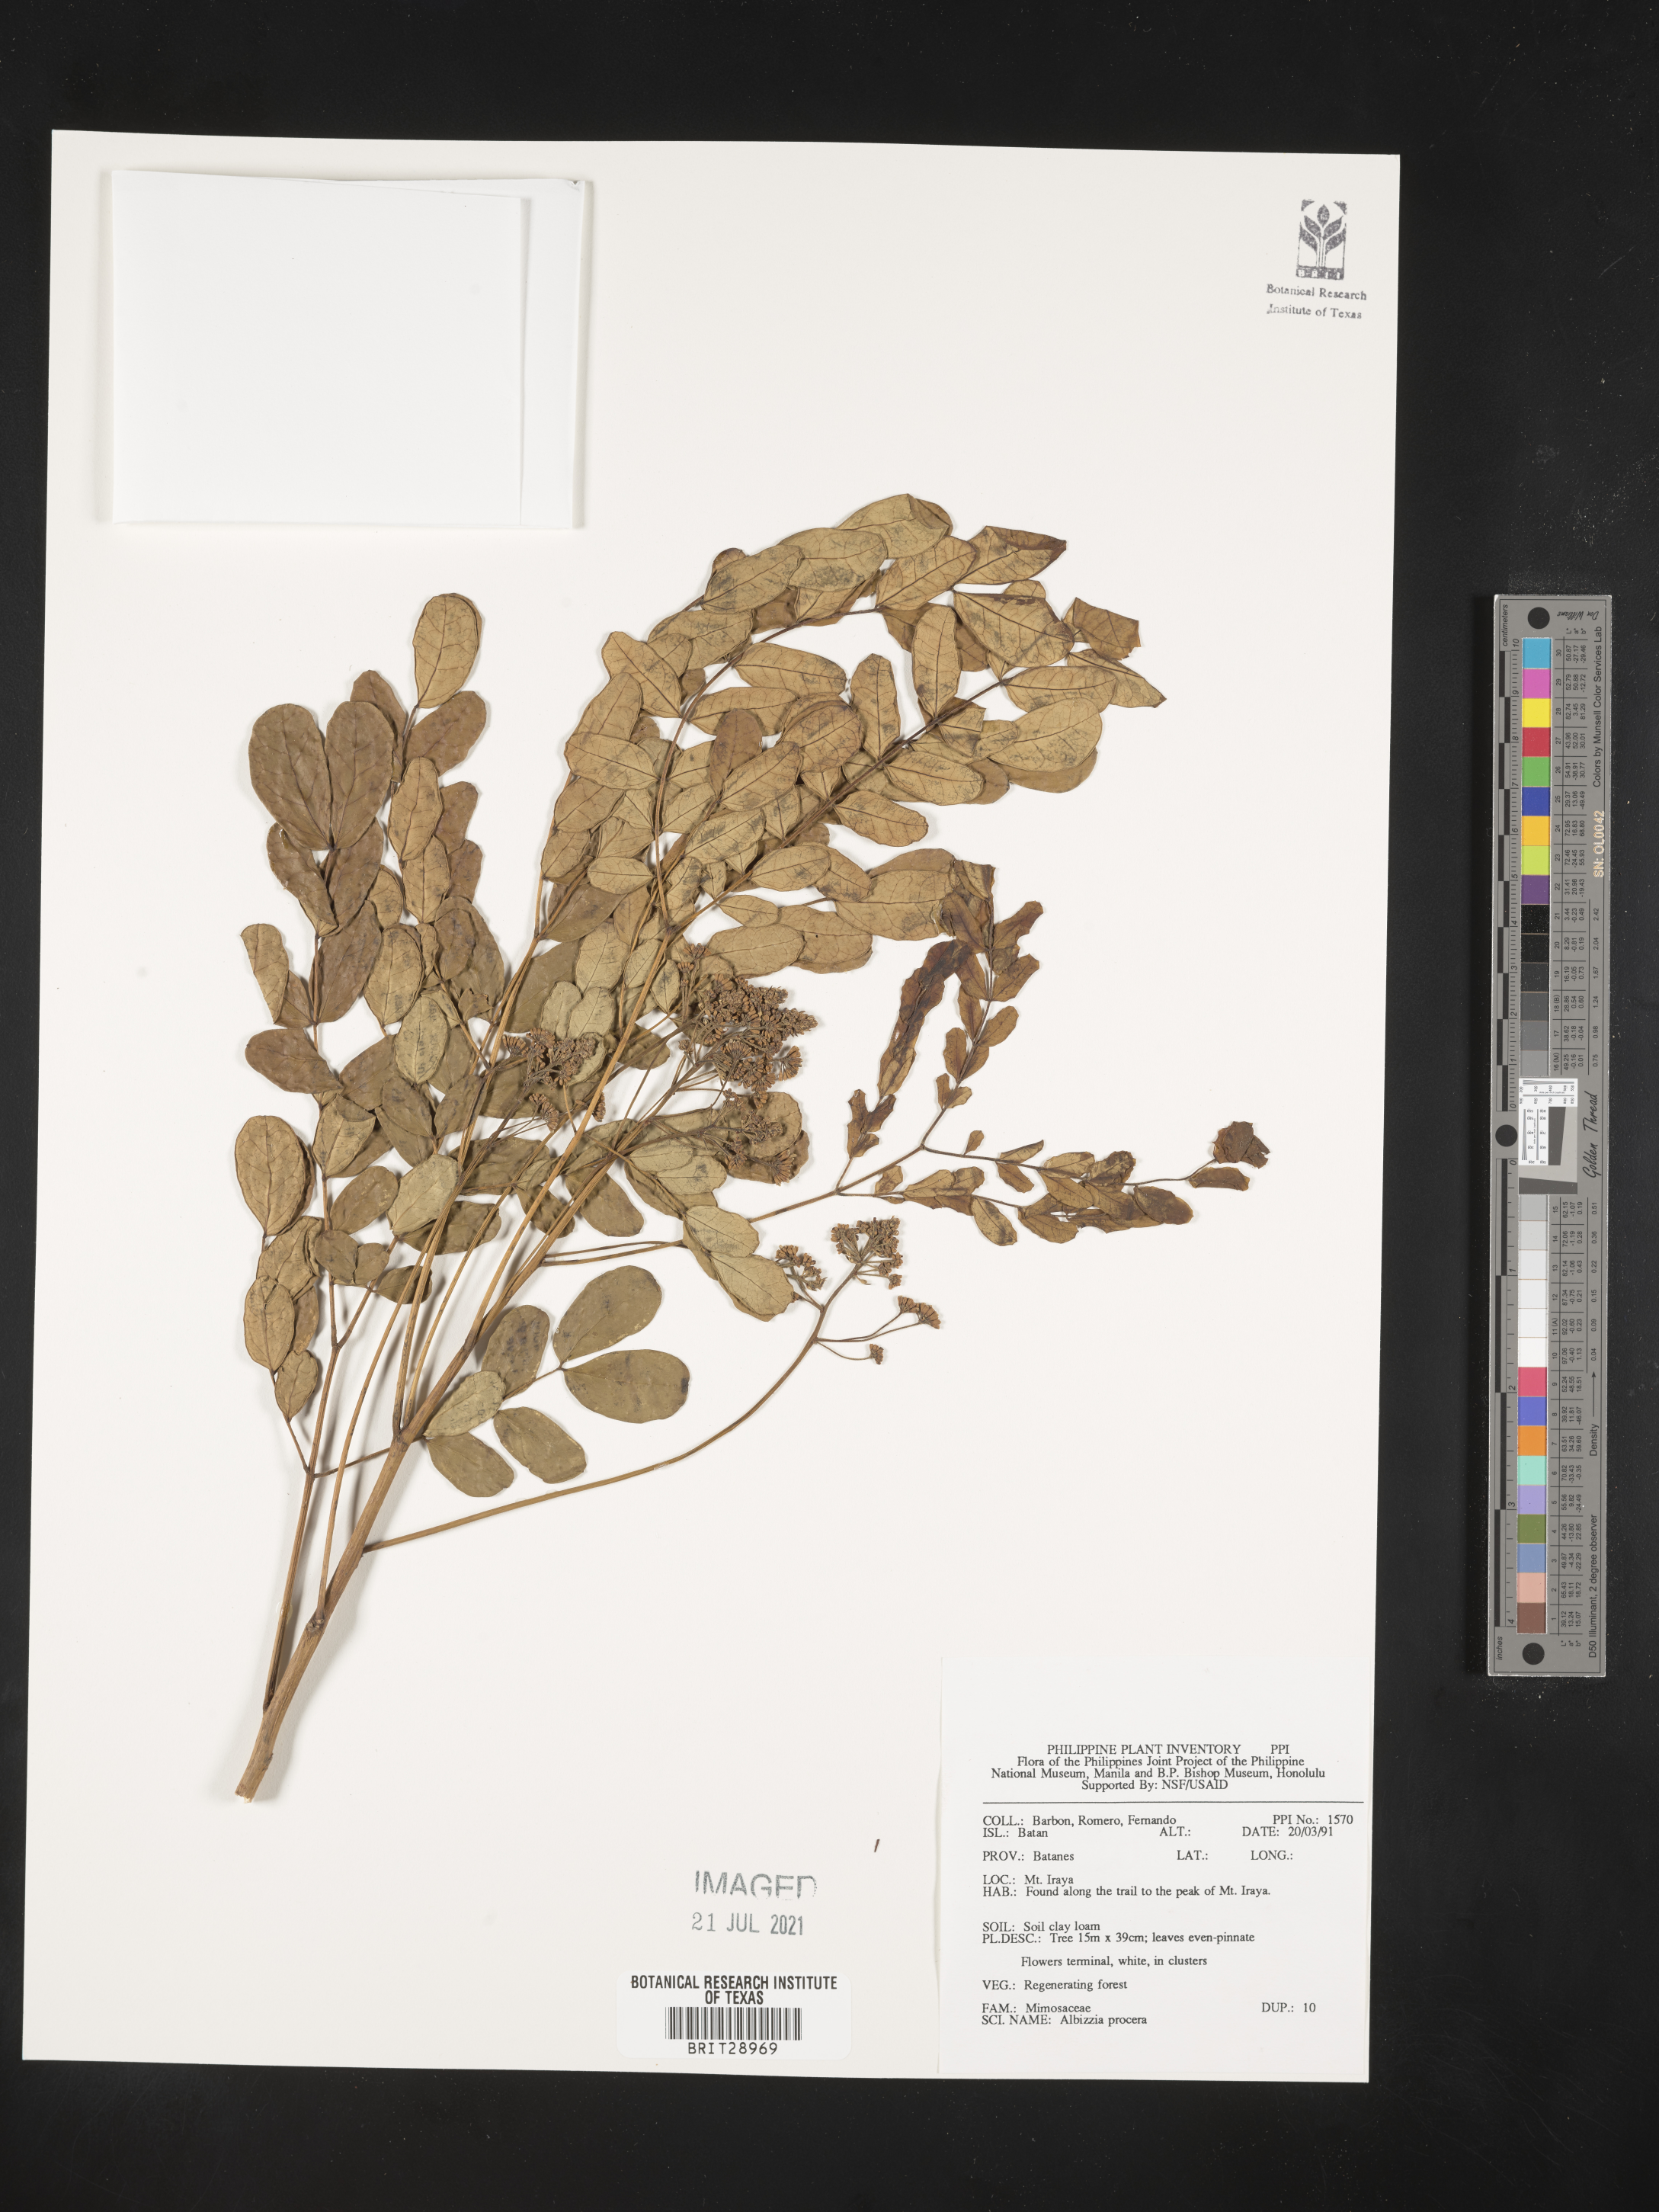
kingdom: Plantae
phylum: Tracheophyta
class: Magnoliopsida
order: Fabales
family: Fabaceae
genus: Albizia
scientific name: Albizia procera
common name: Tall albizia
